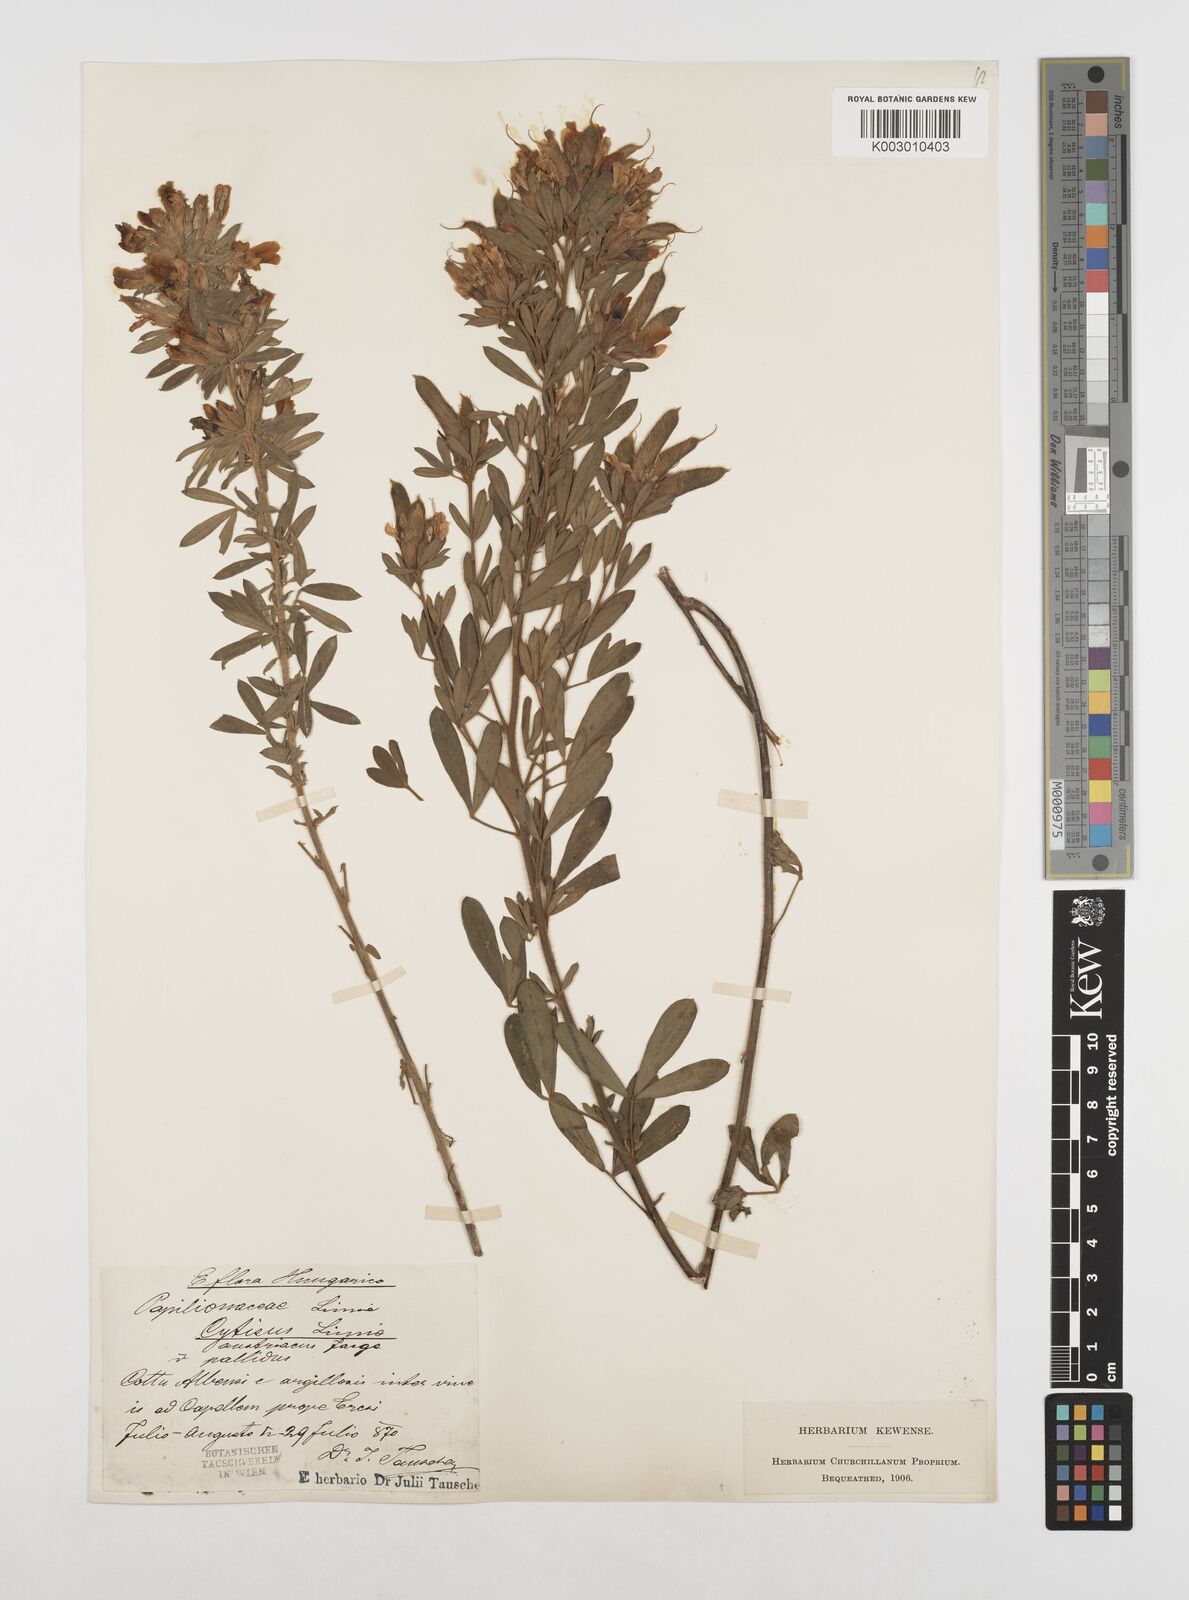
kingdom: Plantae
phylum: Tracheophyta
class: Magnoliopsida
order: Fabales
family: Fabaceae
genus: Chamaecytisus
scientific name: Chamaecytisus rochelii
